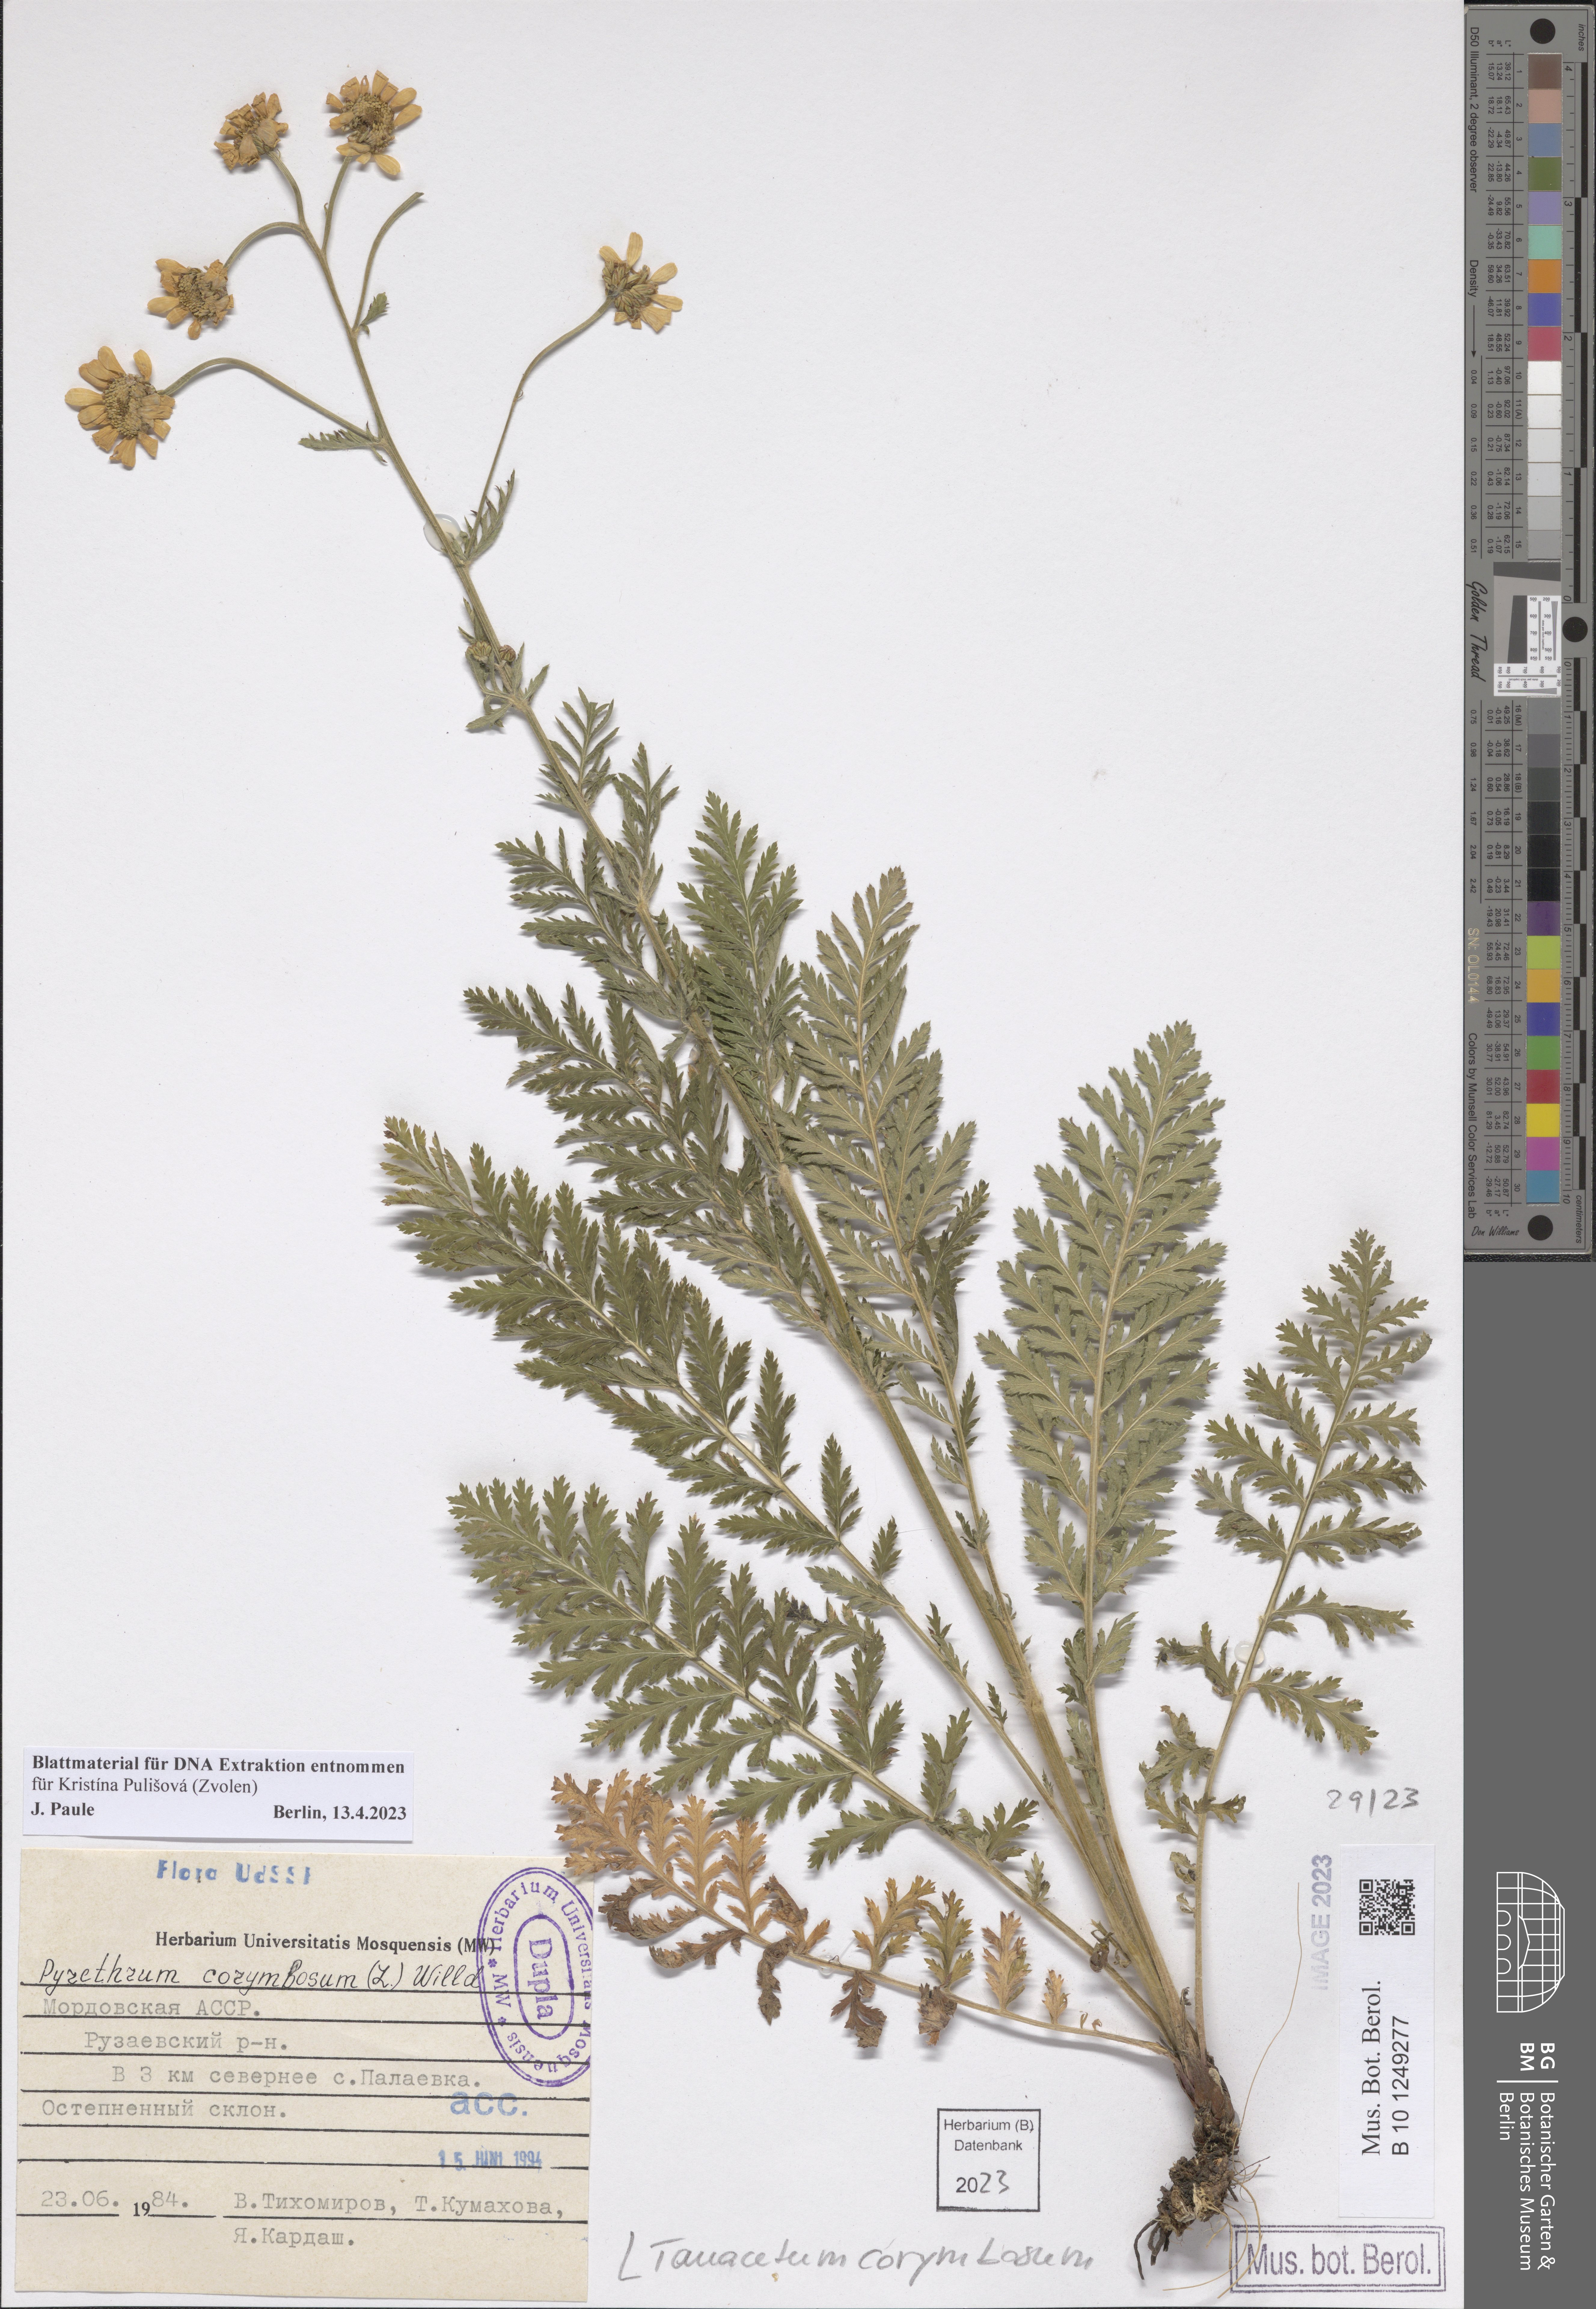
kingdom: Plantae
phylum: Tracheophyta
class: Magnoliopsida
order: Asterales
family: Asteraceae
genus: Tanacetum
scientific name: Tanacetum corymbosum
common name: Scentless feverfew
